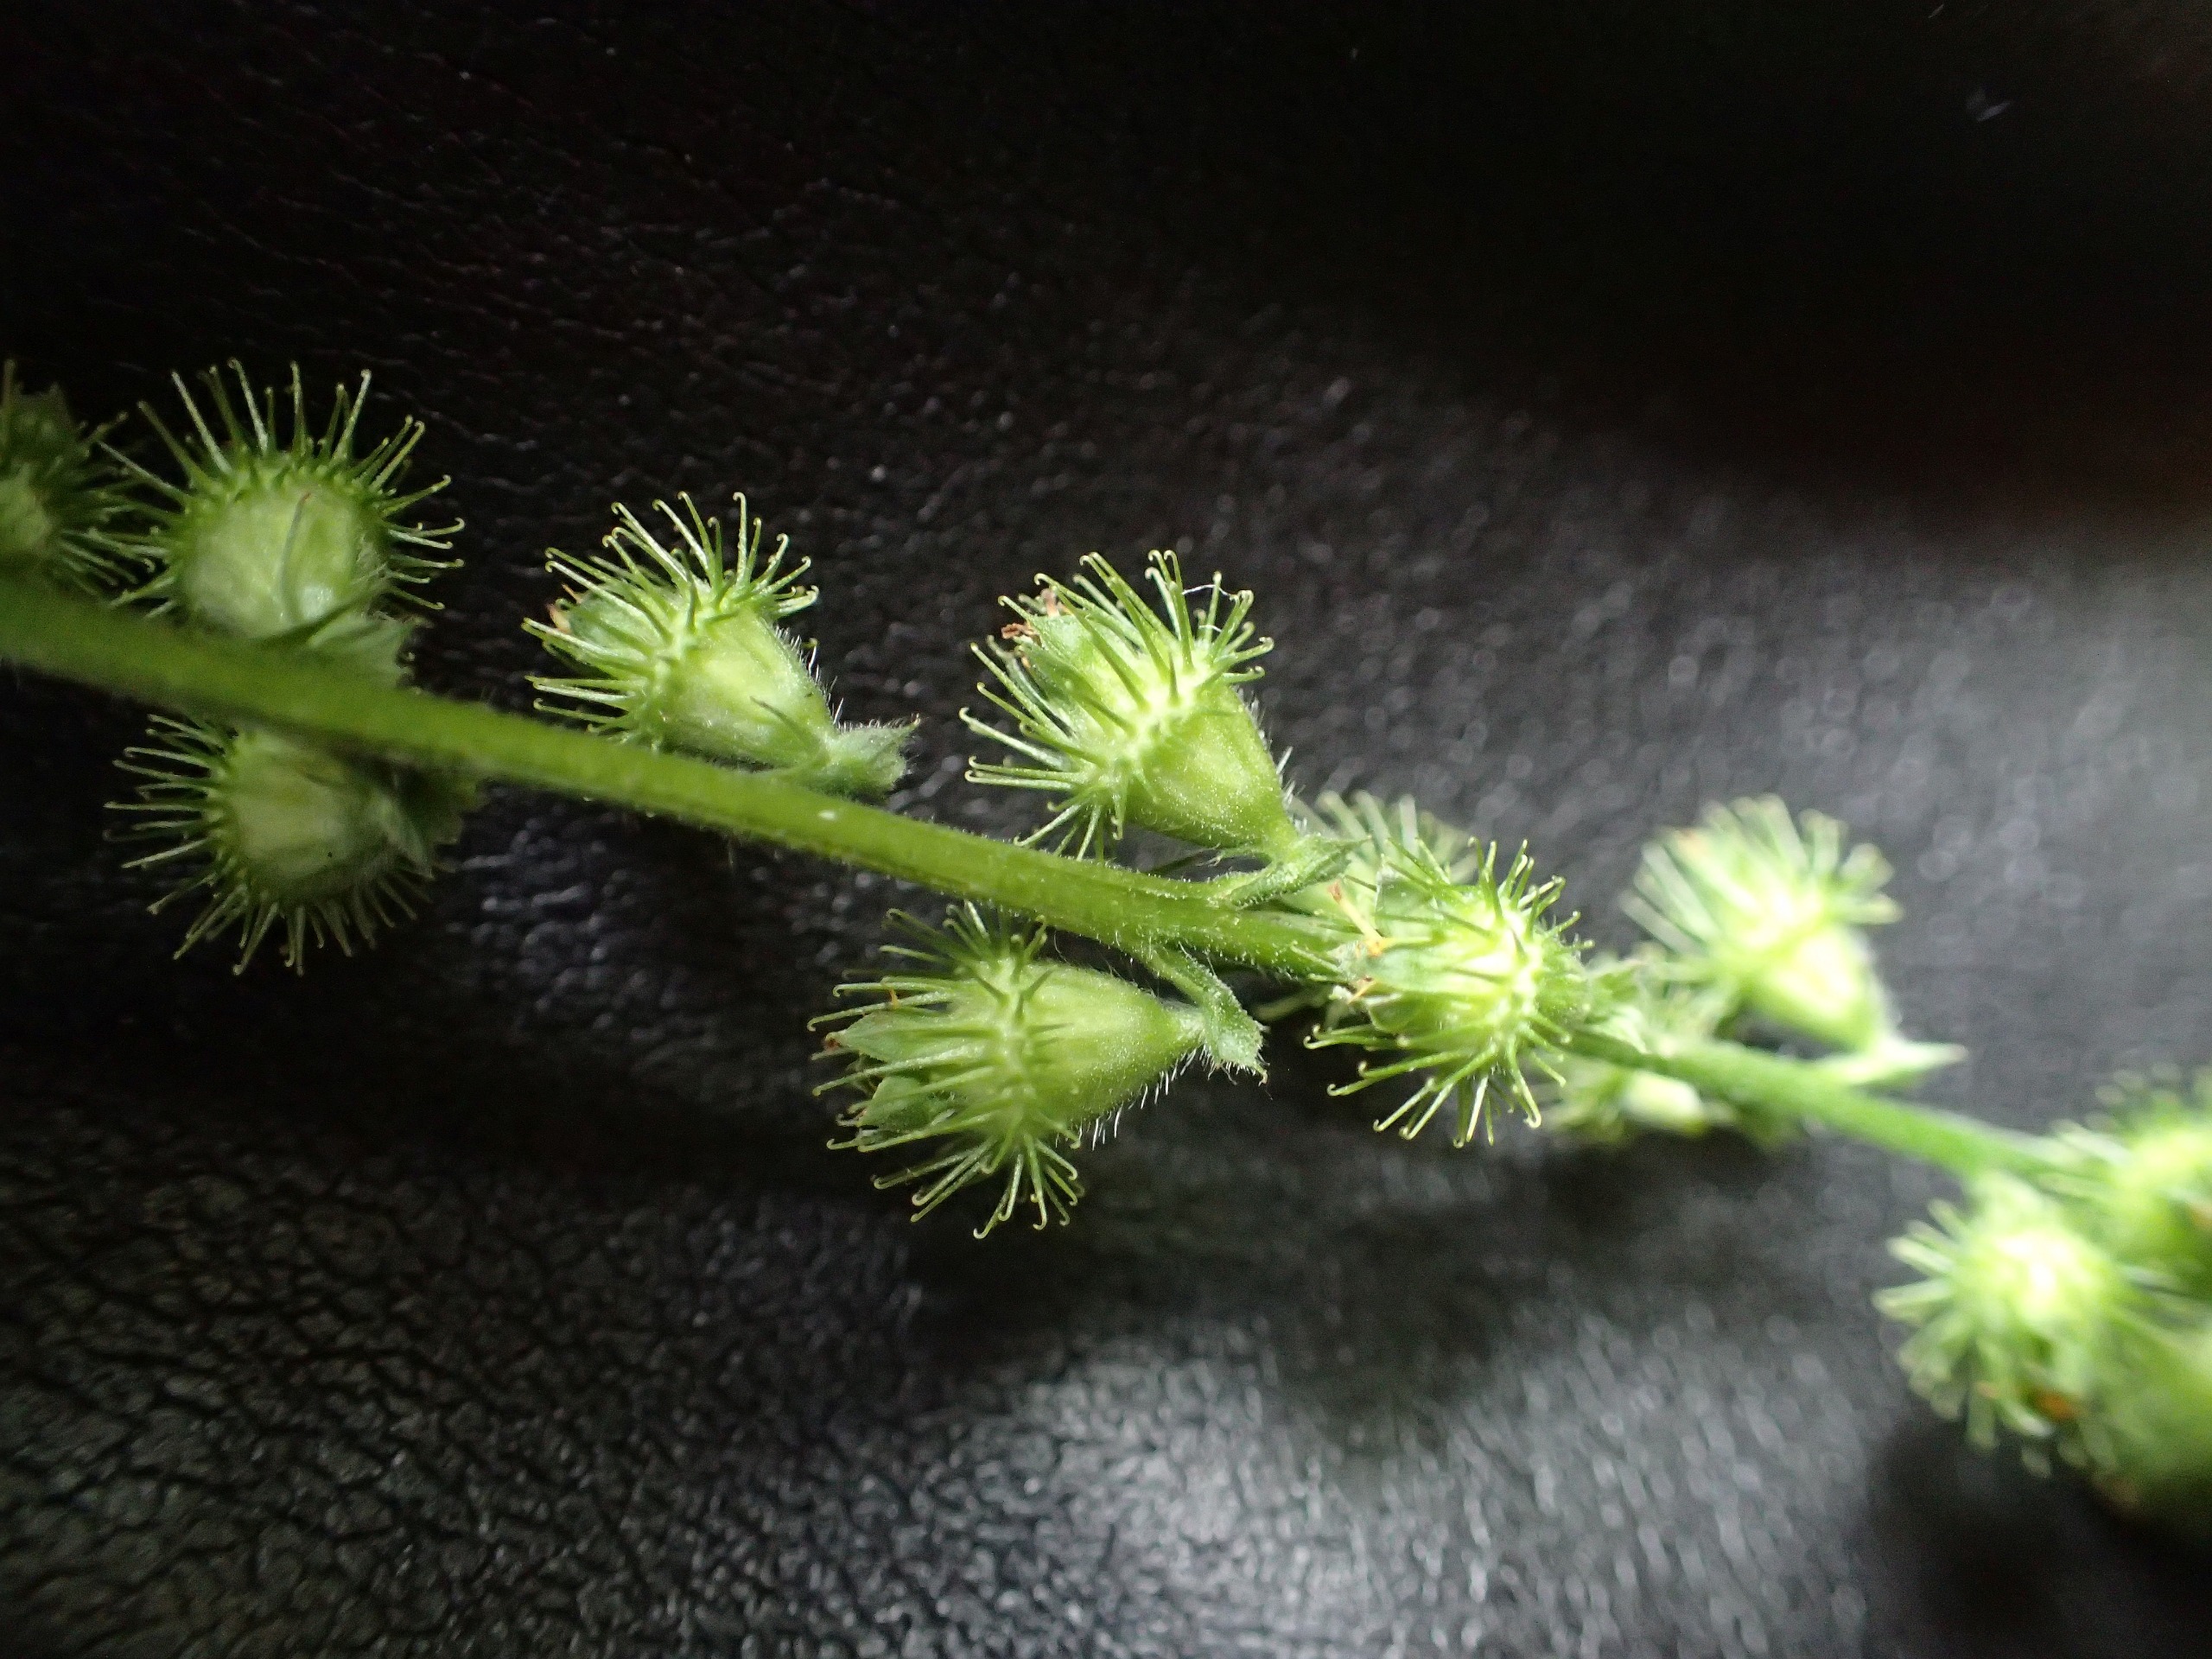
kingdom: Plantae
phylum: Tracheophyta
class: Magnoliopsida
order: Rosales
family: Rosaceae
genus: Agrimonia
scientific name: Agrimonia
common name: Almindelig agermåne × vellugtende agermåne
